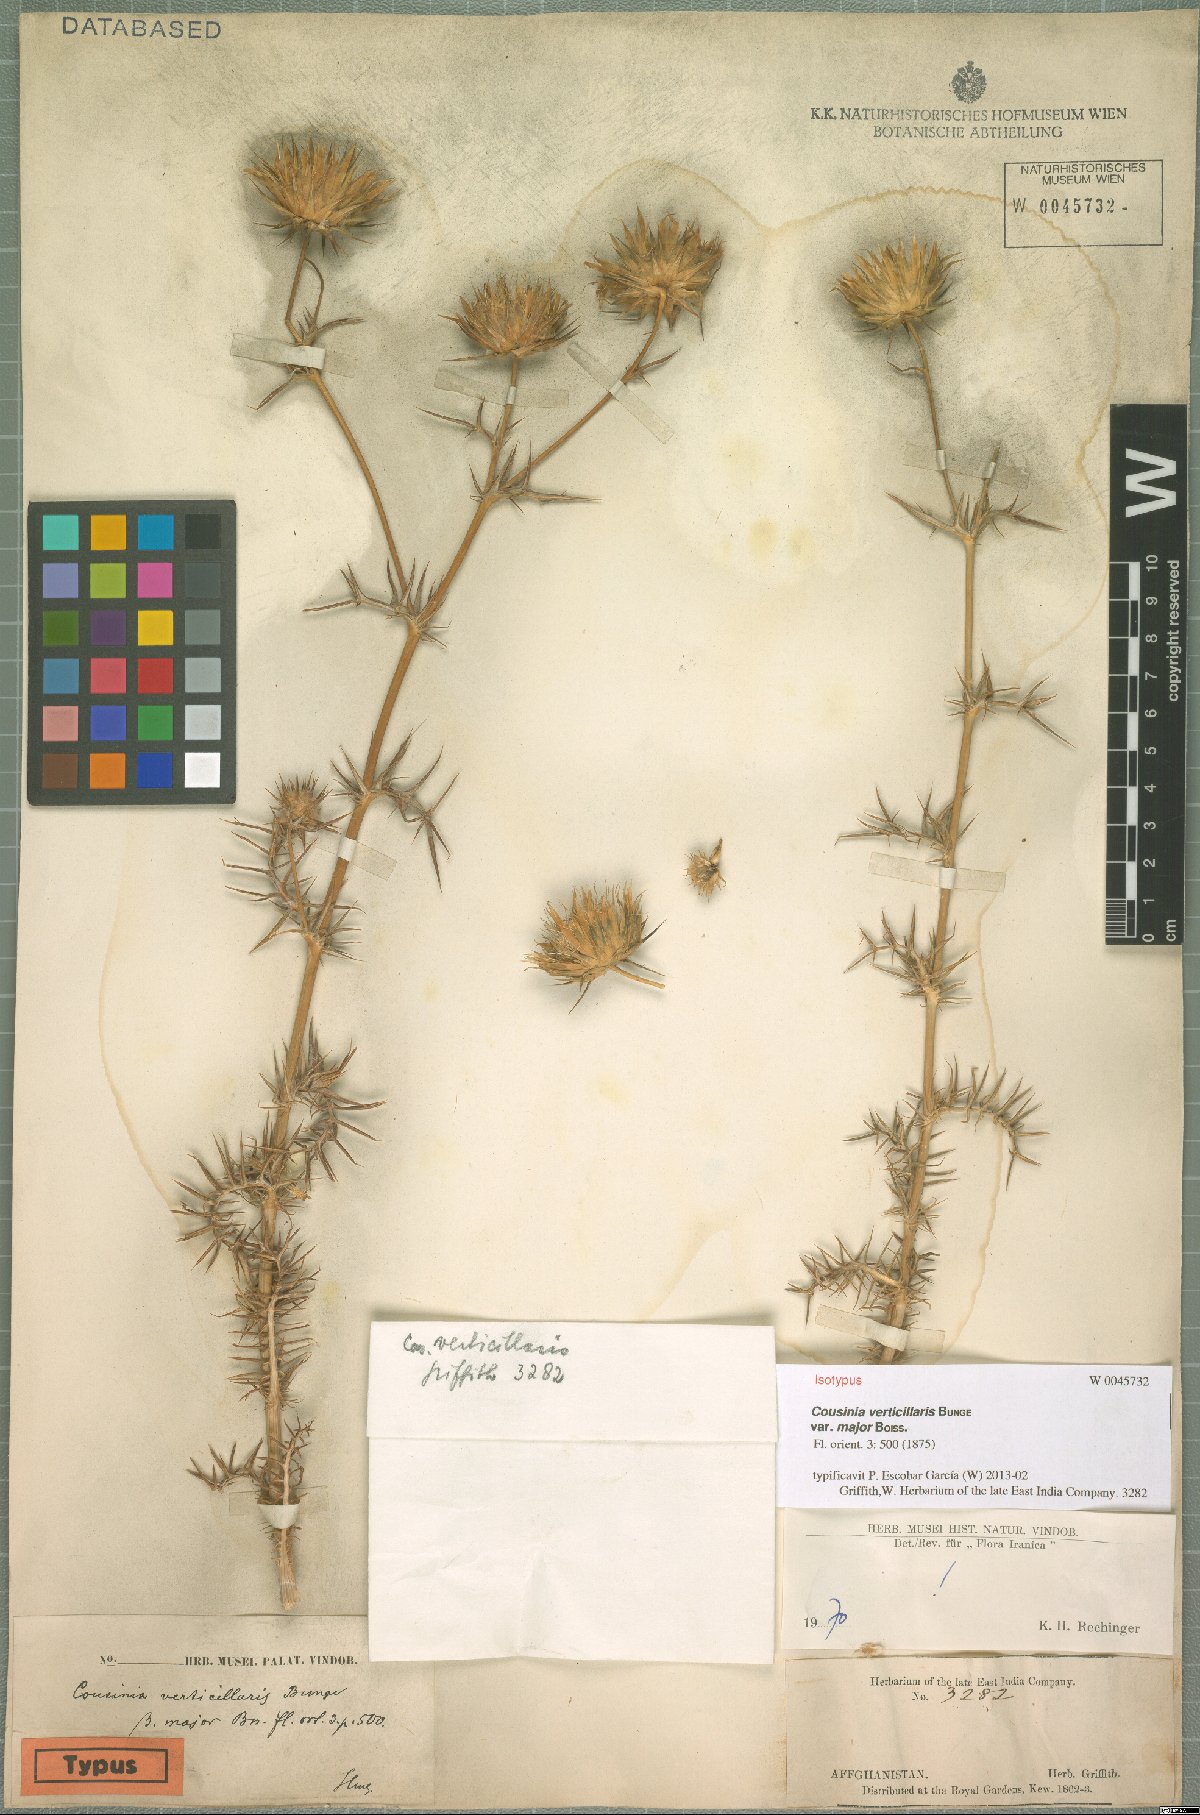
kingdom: Plantae
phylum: Tracheophyta
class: Magnoliopsida
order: Asterales
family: Asteraceae
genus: Cousinia
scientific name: Cousinia verticillaris
